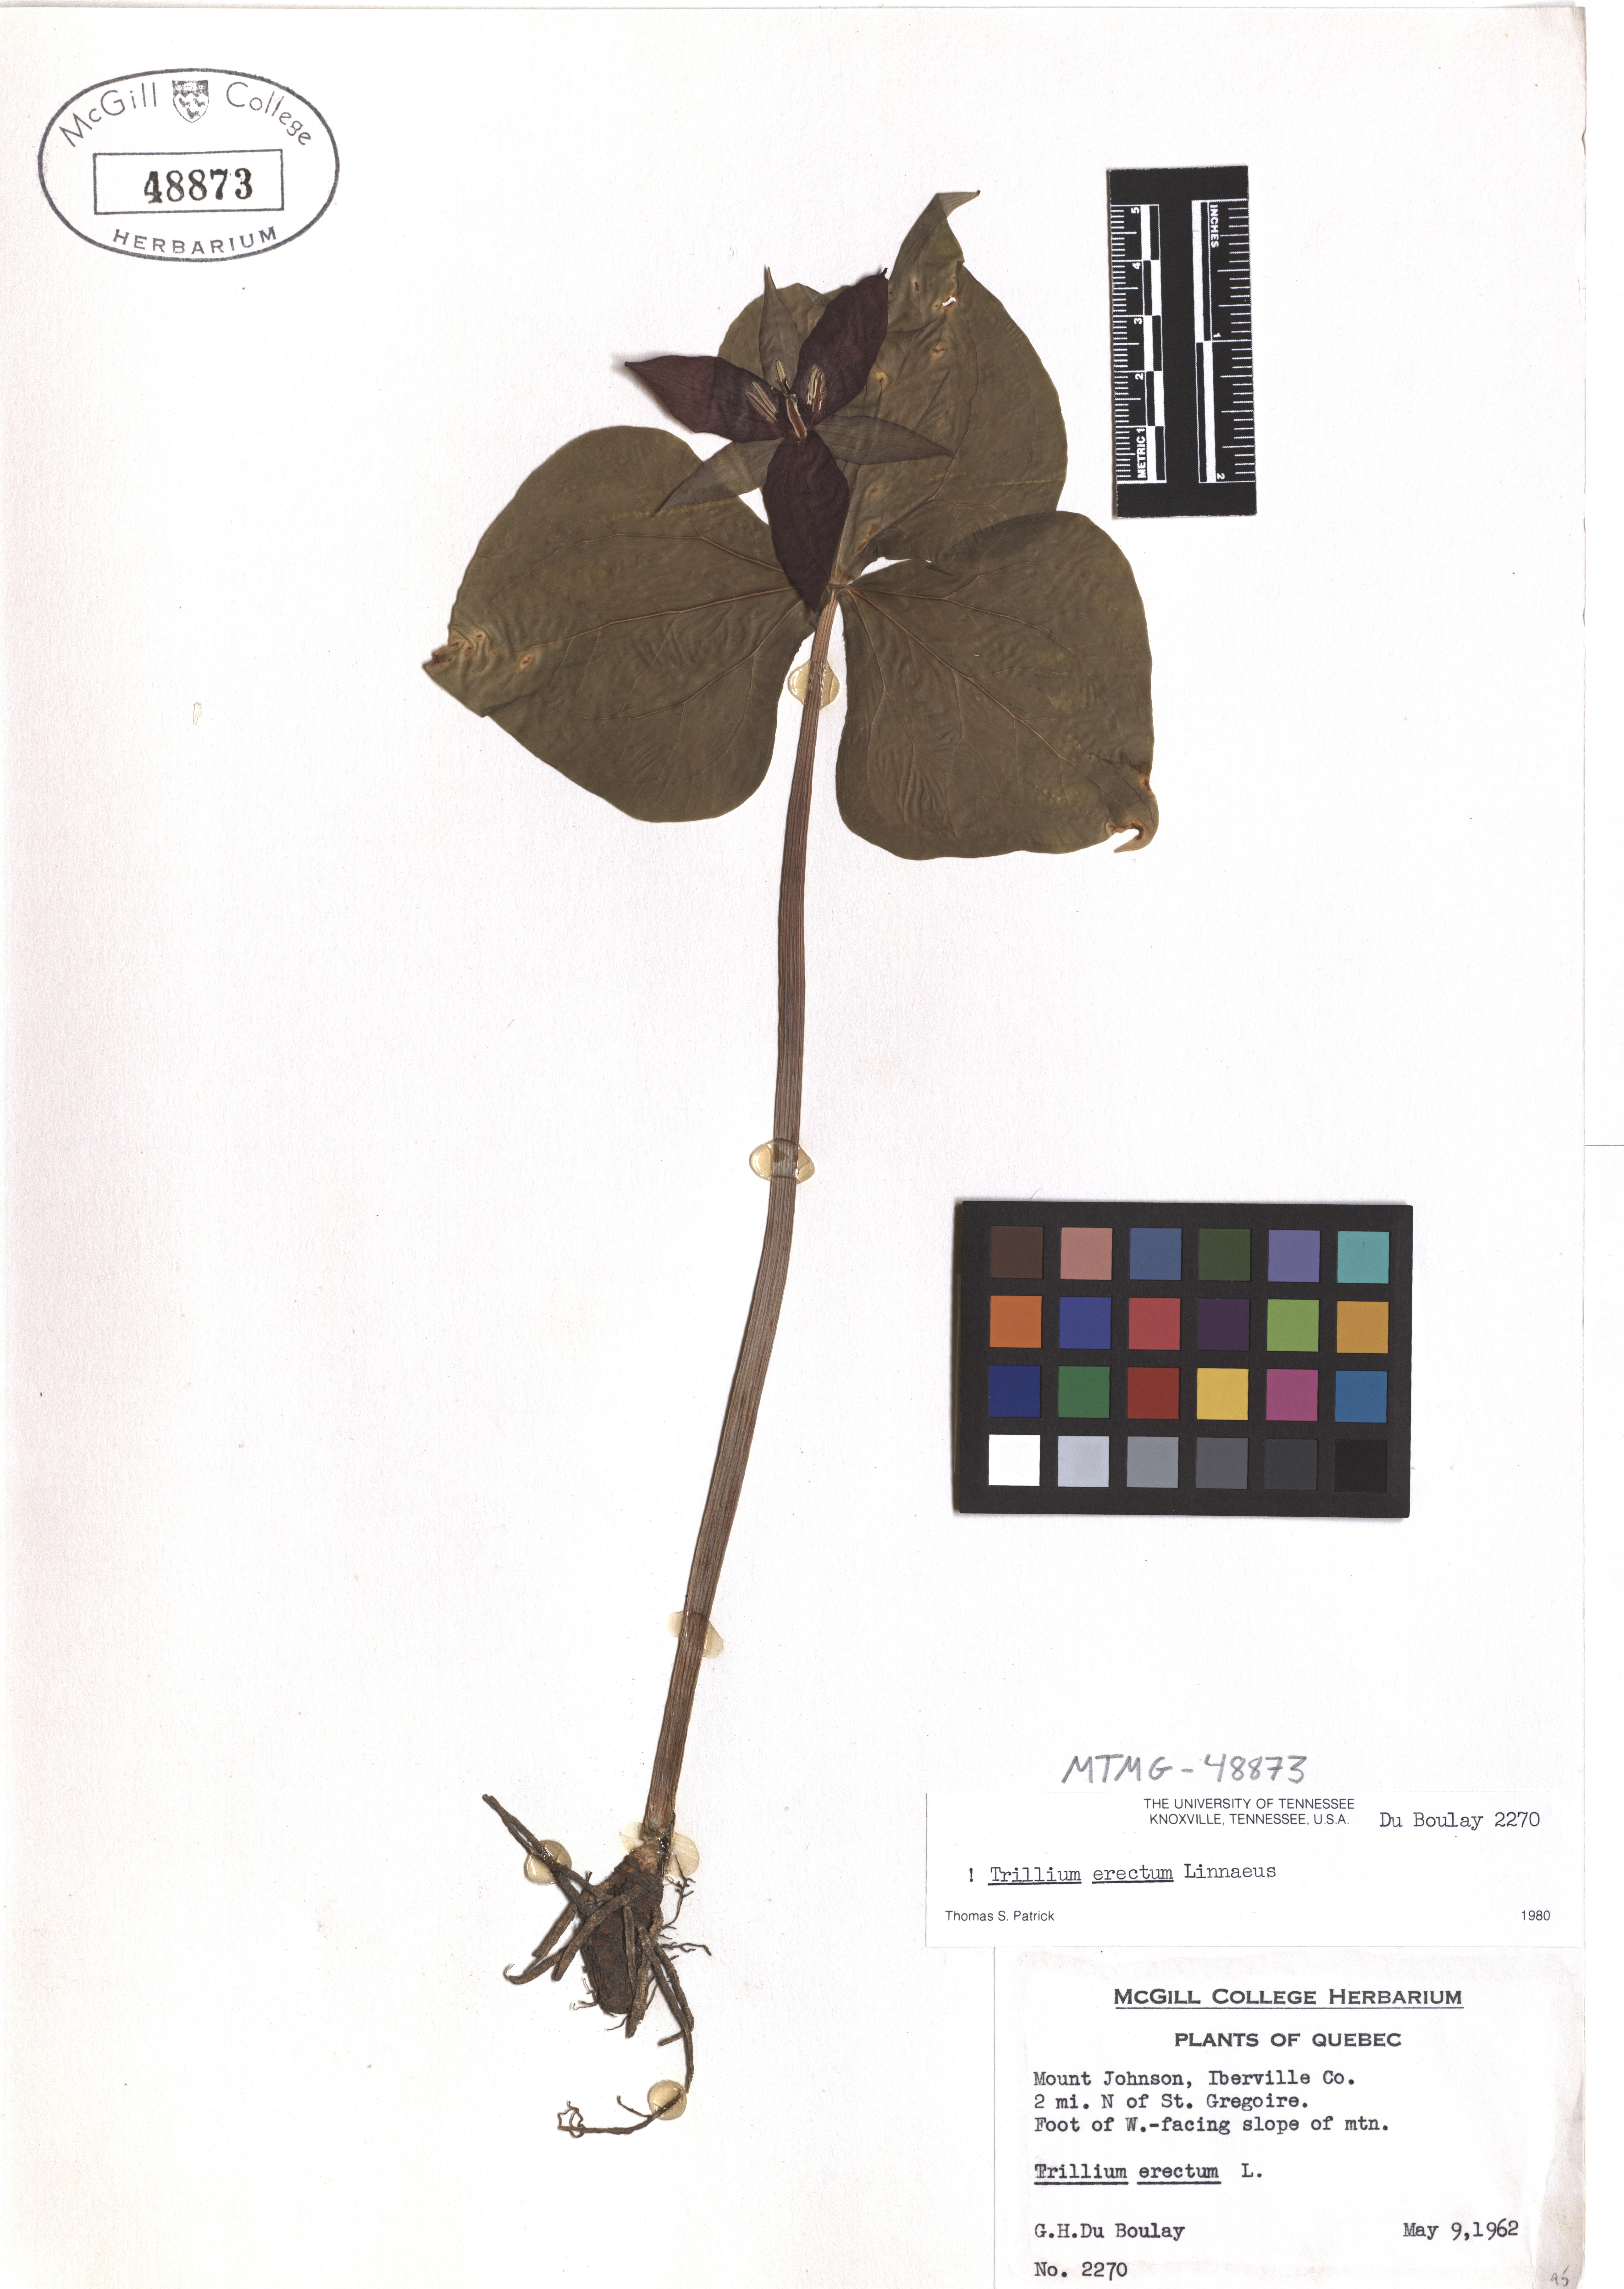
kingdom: Plantae
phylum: Tracheophyta
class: Liliopsida
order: Liliales
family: Melanthiaceae
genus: Trillium
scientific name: Trillium erectum
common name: Purple trillium
